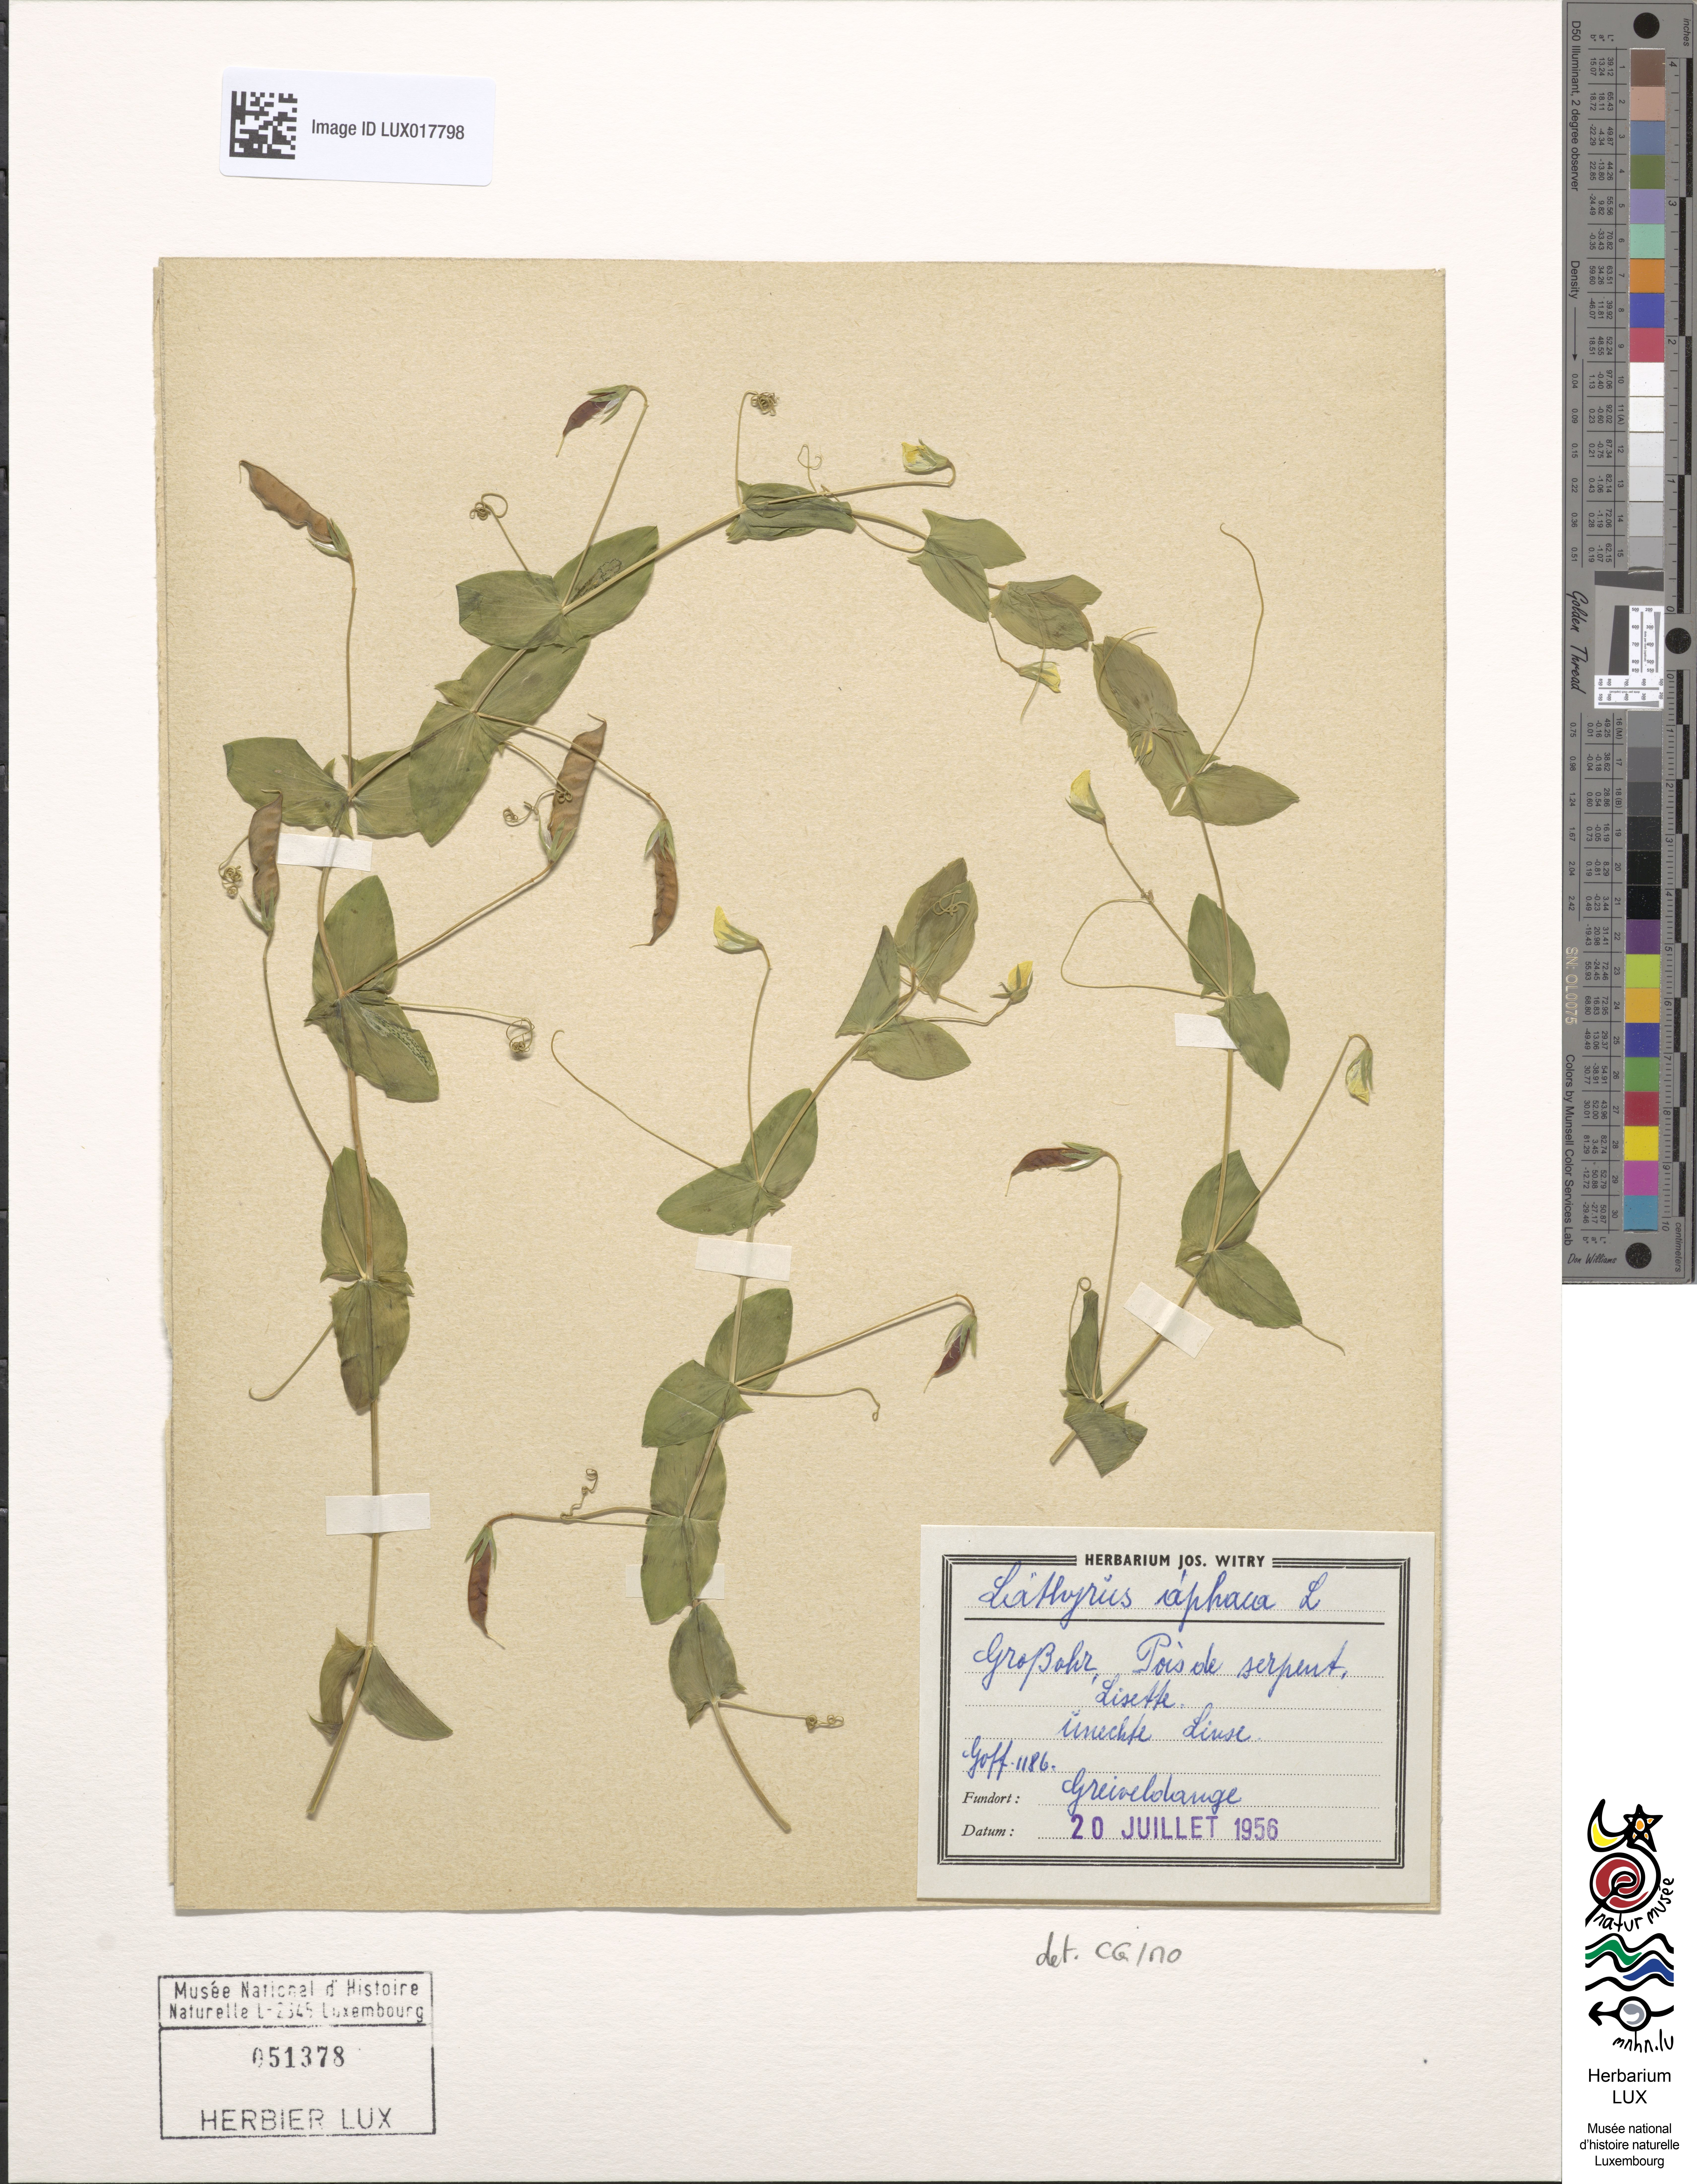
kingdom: Plantae
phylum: Tracheophyta
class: Magnoliopsida
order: Fabales
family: Fabaceae
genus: Lathyrus
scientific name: Lathyrus aphaca
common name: Yellow vetchling
